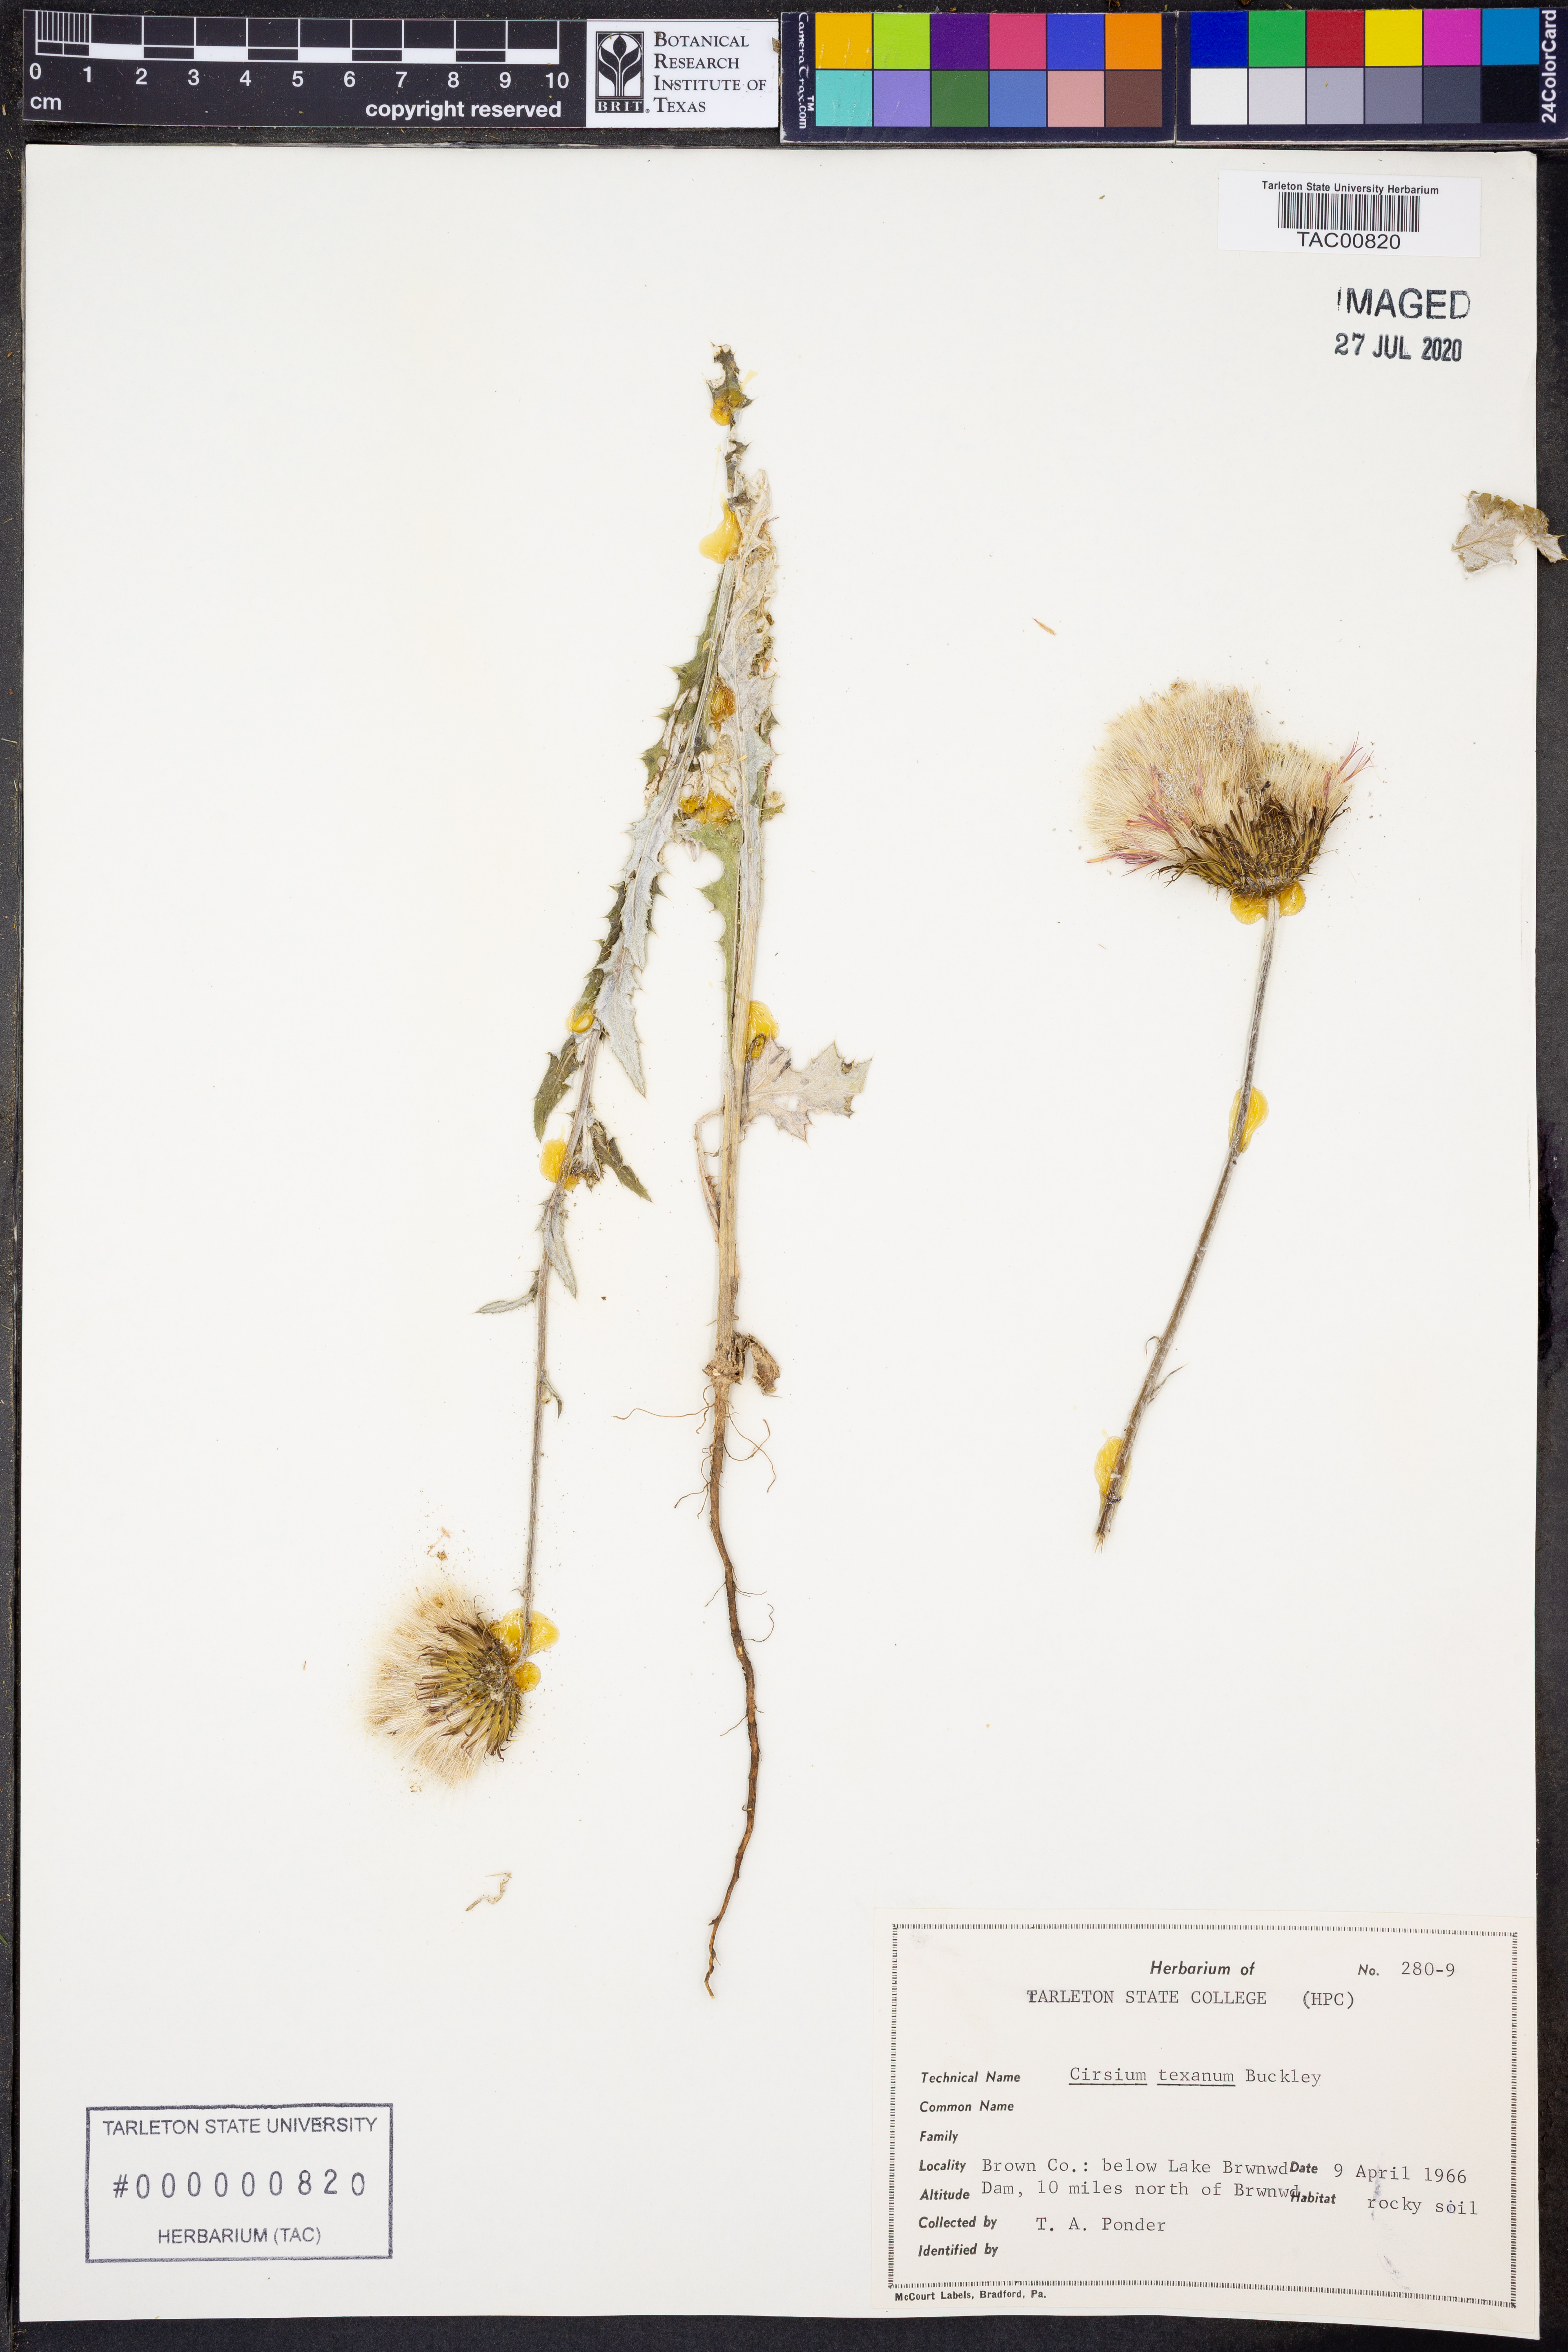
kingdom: Plantae
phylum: Tracheophyta
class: Magnoliopsida
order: Asterales
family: Asteraceae
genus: Cirsium
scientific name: Cirsium texanum
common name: Texas purple thistle
